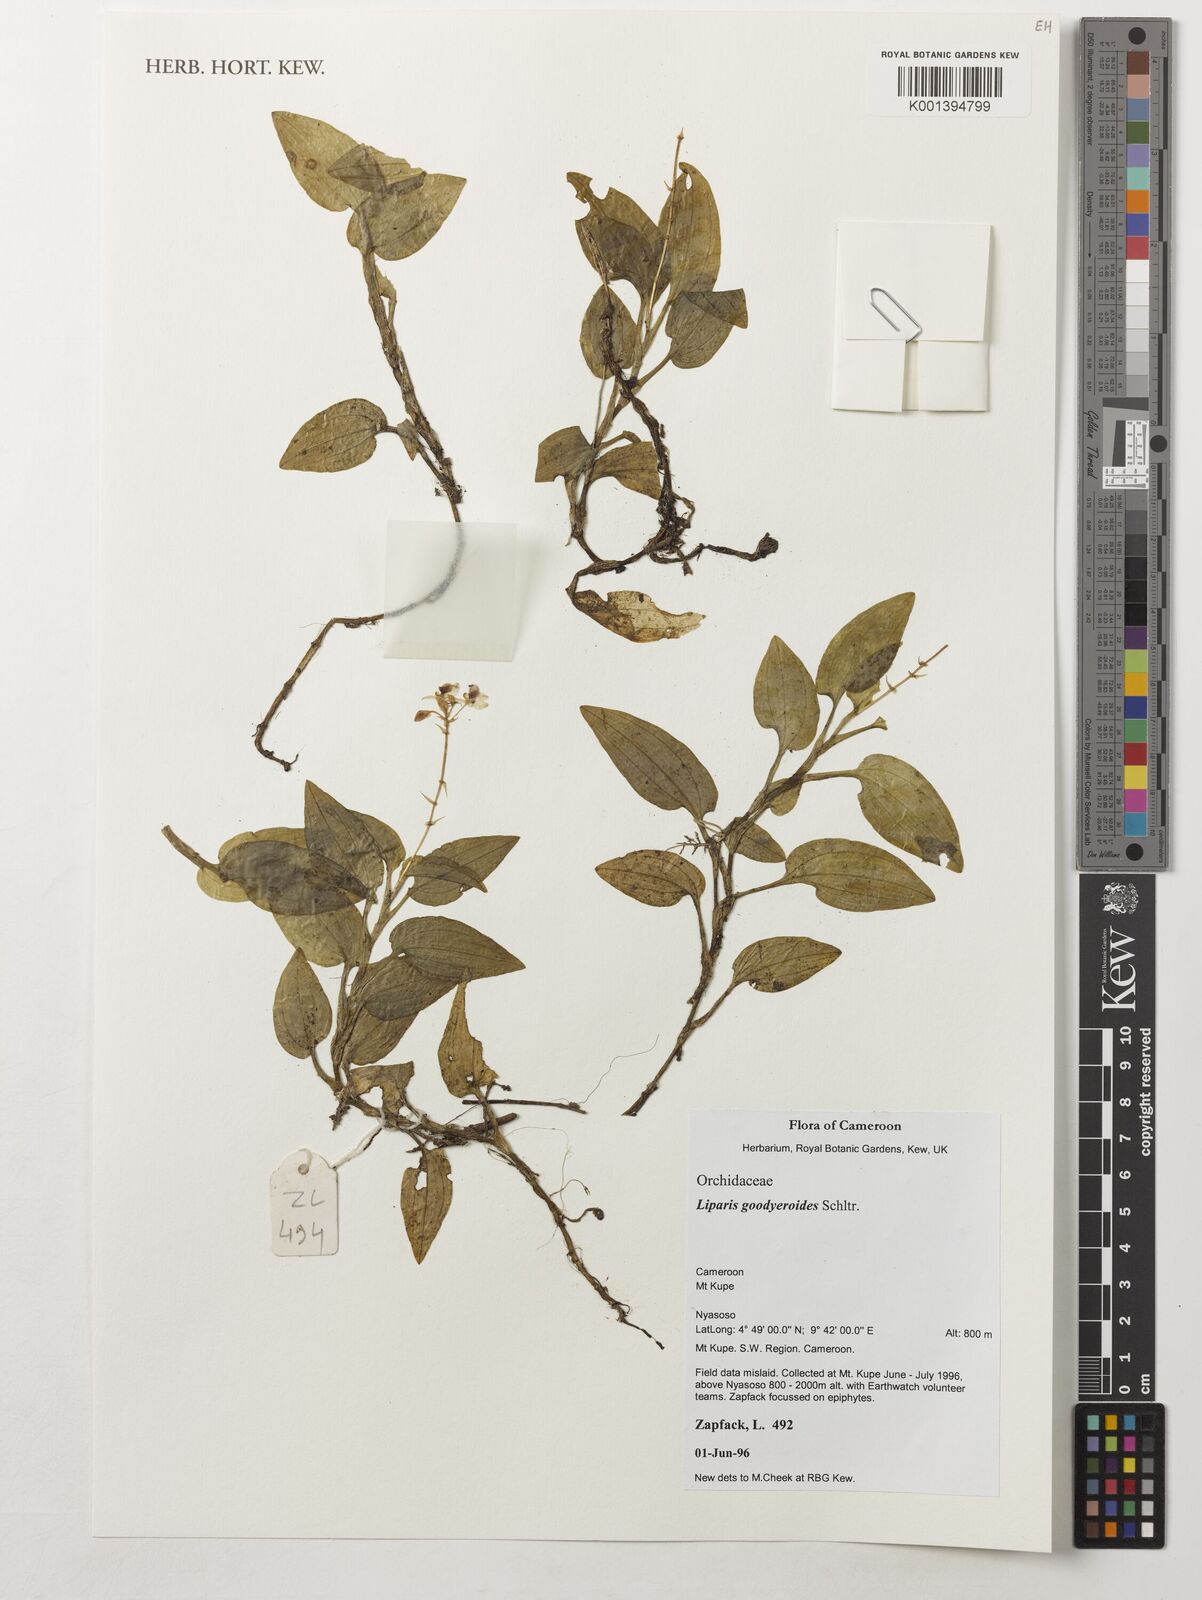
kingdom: Plantae
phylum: Tracheophyta
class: Liliopsida
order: Asparagales
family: Orchidaceae
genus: Liparis
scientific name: Liparis goodyeroides
